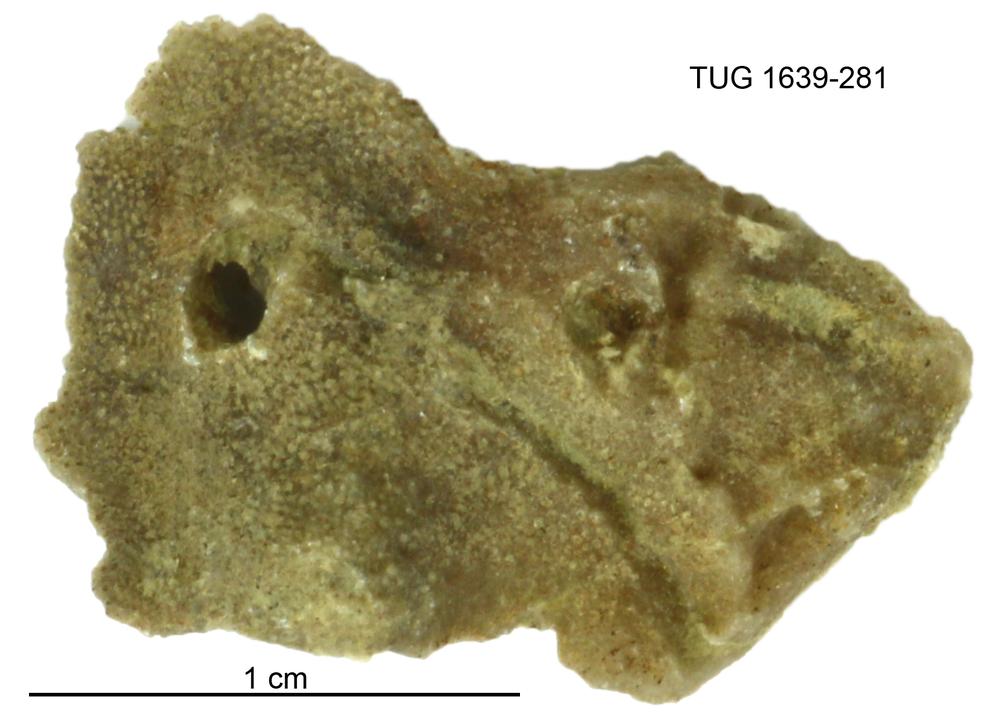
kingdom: Animalia
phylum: Bryozoa
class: Stenolaemata
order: Cystoporida
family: Fistuliporidae
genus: Fistulipora
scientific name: Fistulipora przhidolensis
